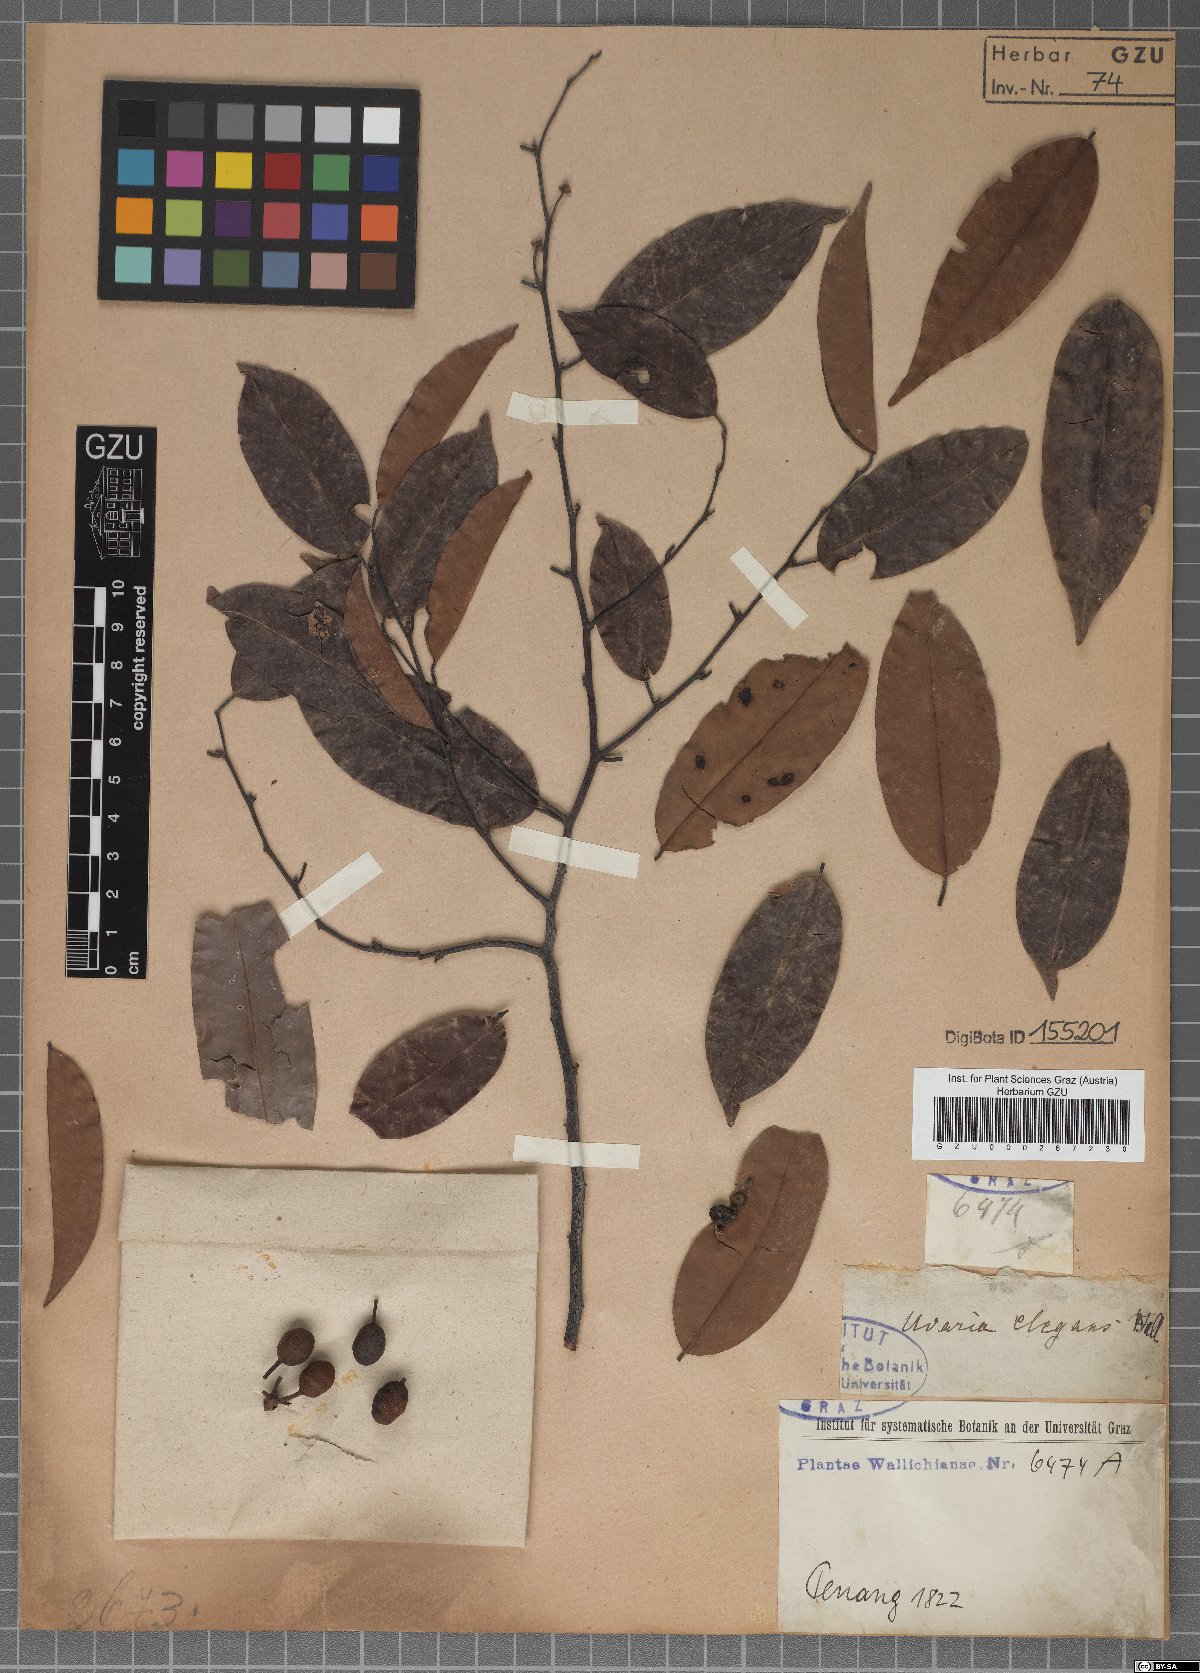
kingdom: Plantae
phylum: Tracheophyta
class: Magnoliopsida
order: Magnoliales
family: Annonaceae
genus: Mitrella
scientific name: Mitrella kentii
